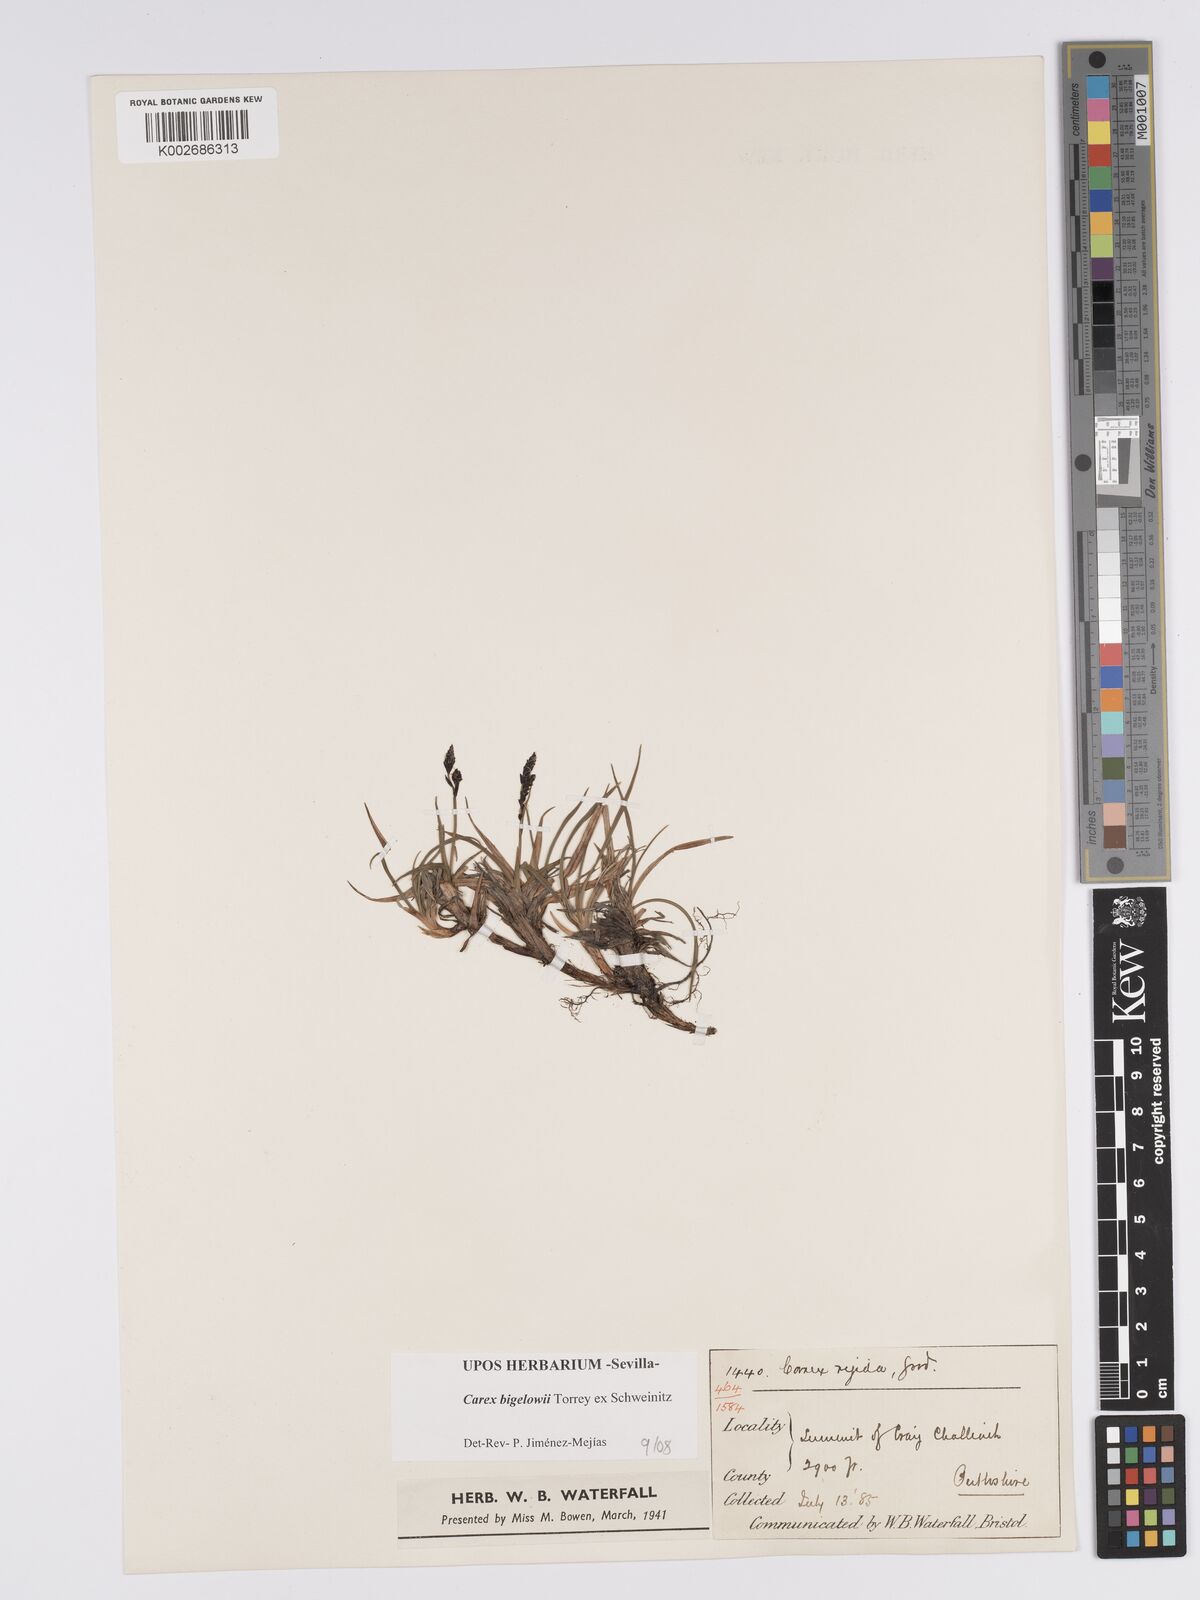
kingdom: Plantae
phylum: Tracheophyta
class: Liliopsida
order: Poales
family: Cyperaceae
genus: Carex
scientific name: Carex bigelowii
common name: Stiff sedge
